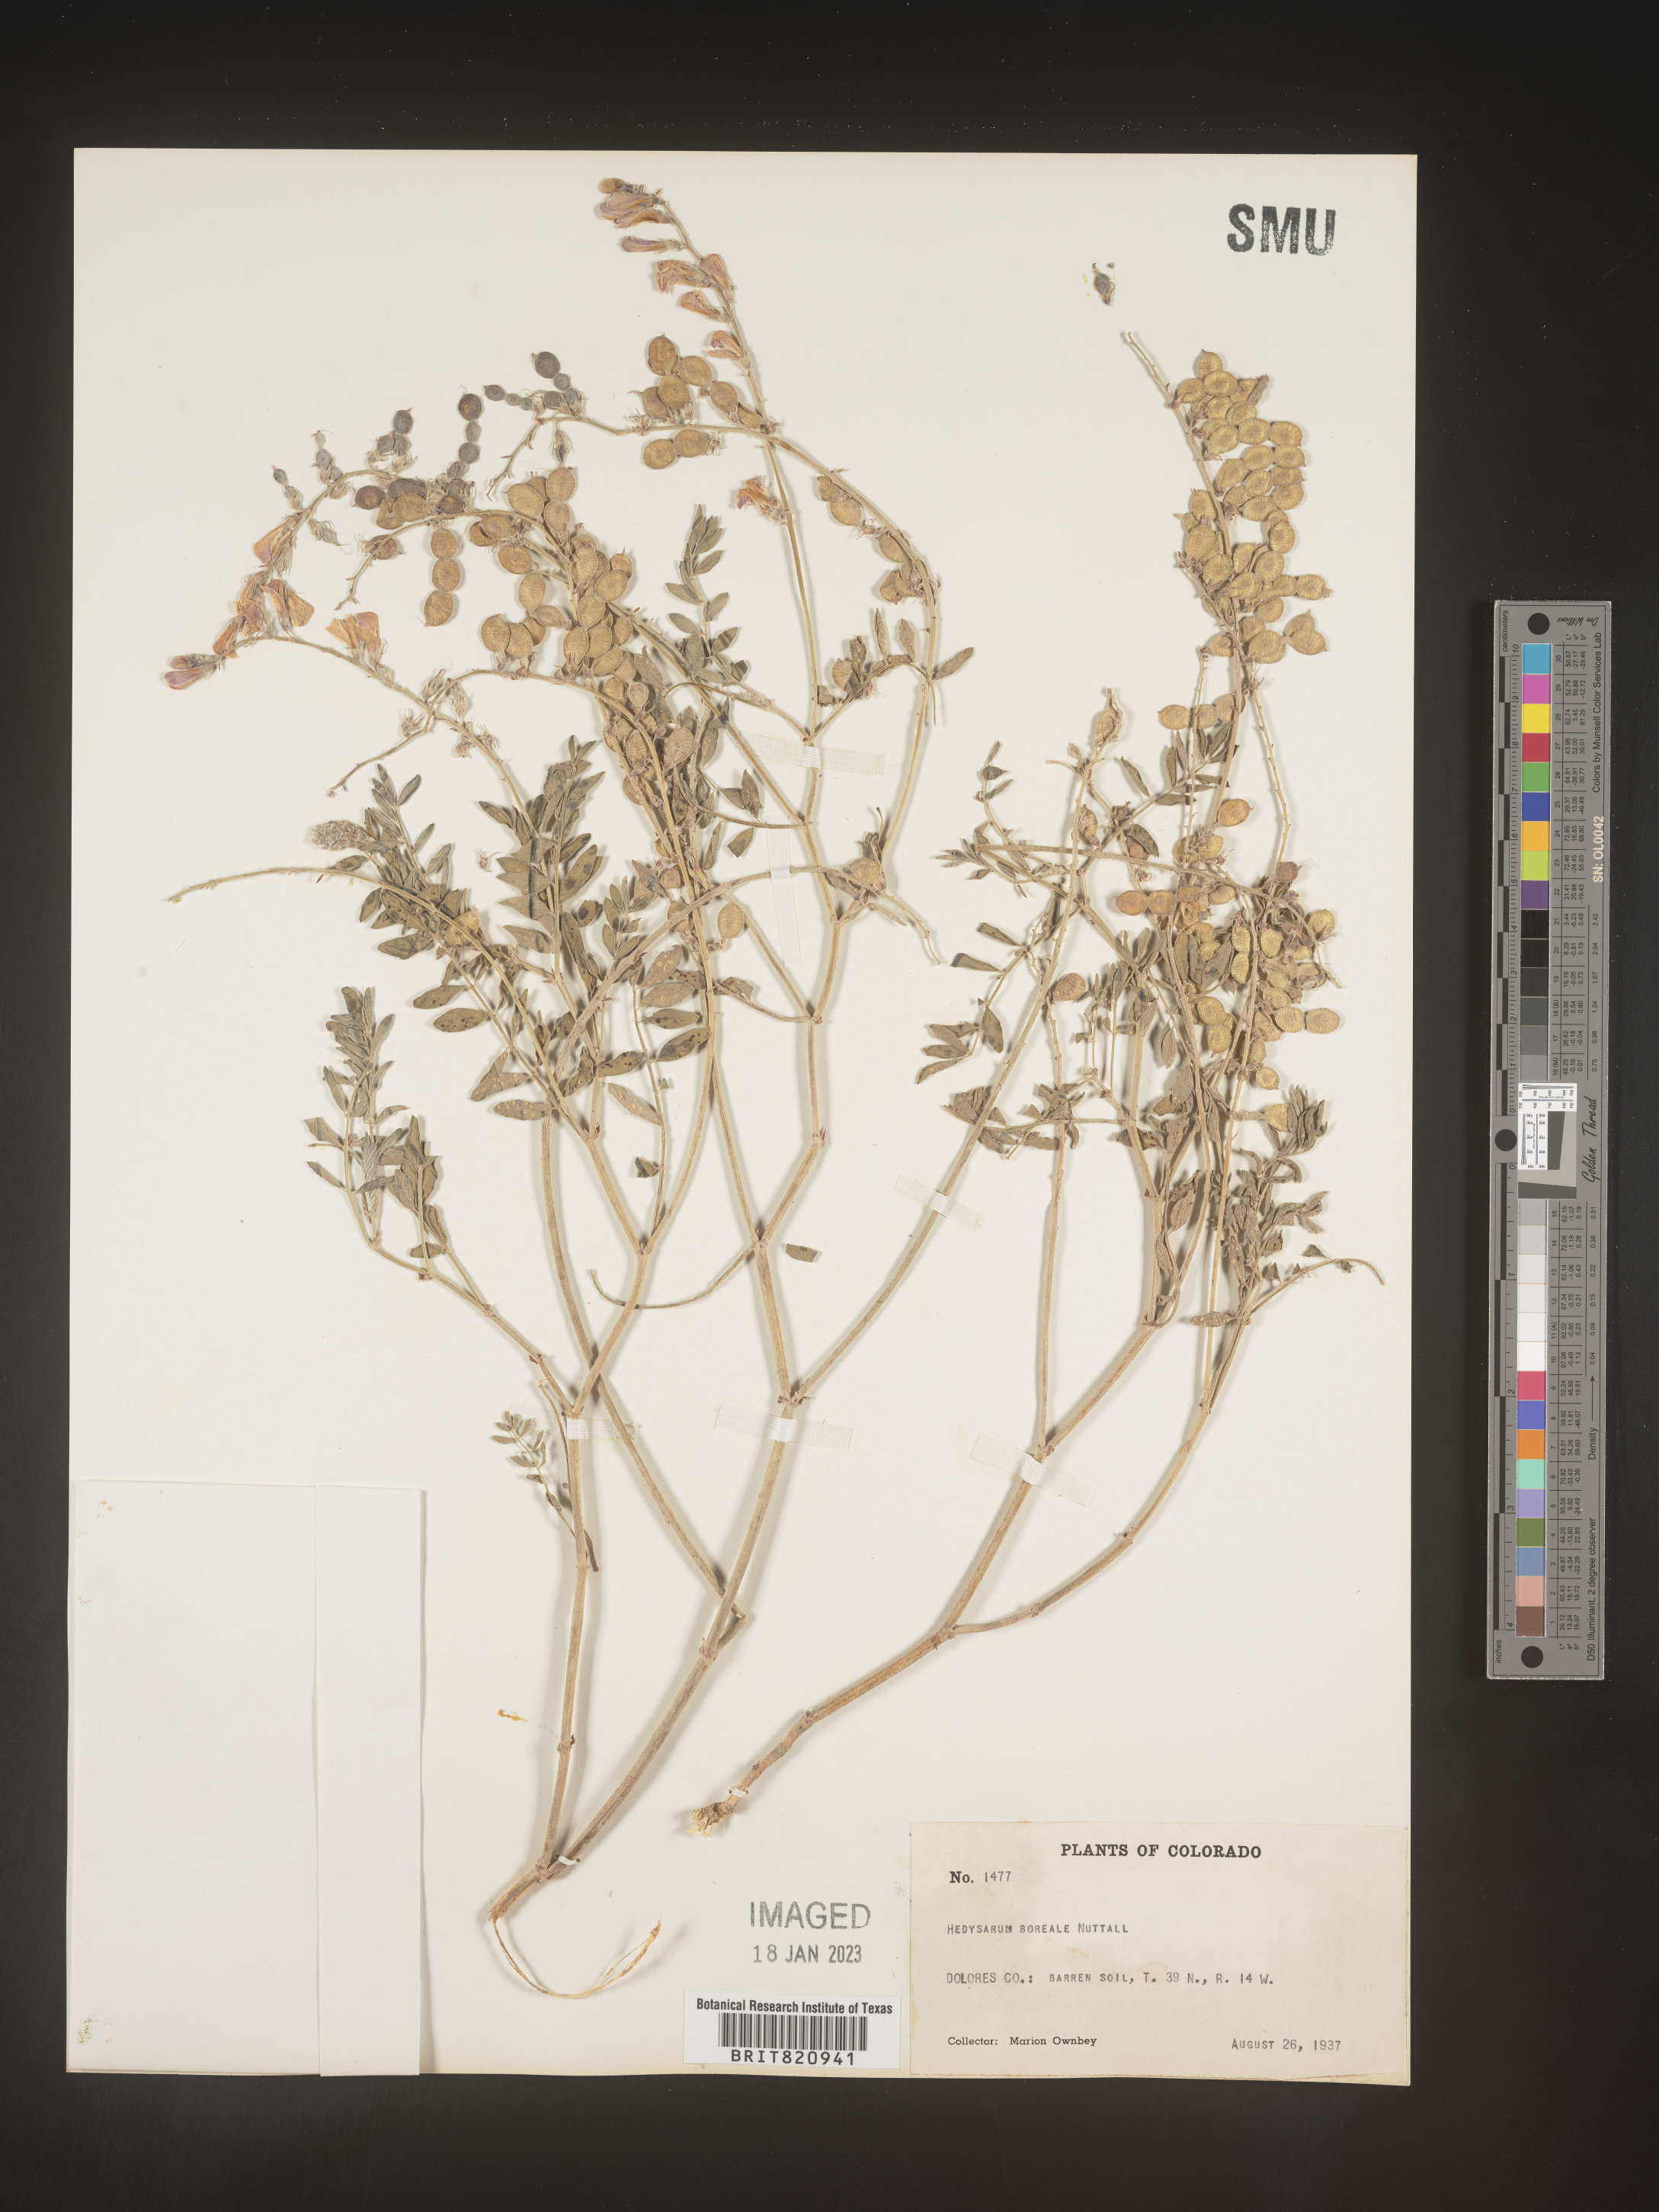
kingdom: Plantae
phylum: Tracheophyta
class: Magnoliopsida
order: Fabales
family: Fabaceae
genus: Hedysarum
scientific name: Hedysarum boreale
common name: Northern sweet-vetch
